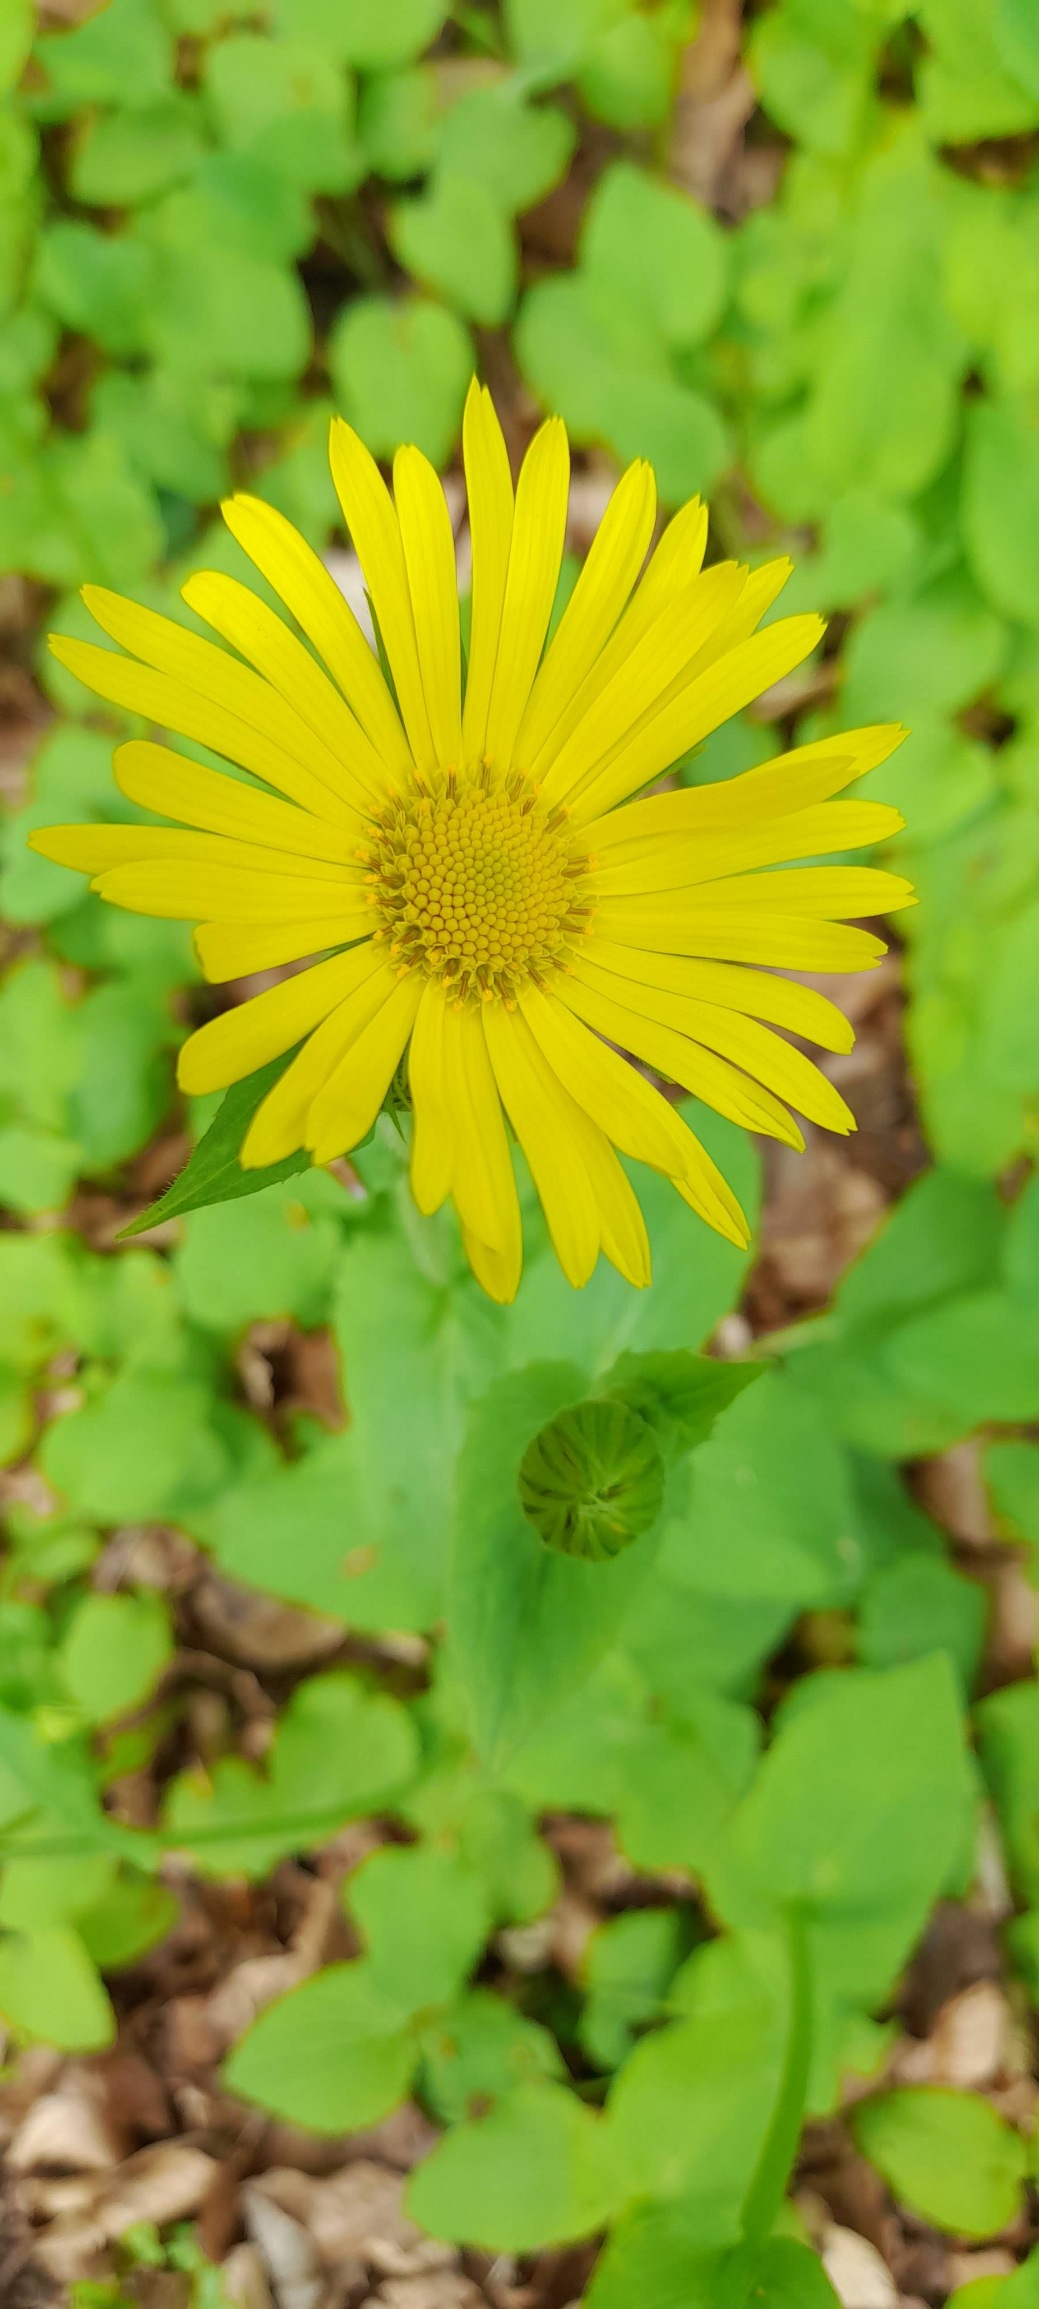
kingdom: Plantae
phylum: Tracheophyta
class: Magnoliopsida
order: Asterales
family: Asteraceae
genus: Doronicum
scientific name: Doronicum pardalianches
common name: Hjertebladet gemserod
